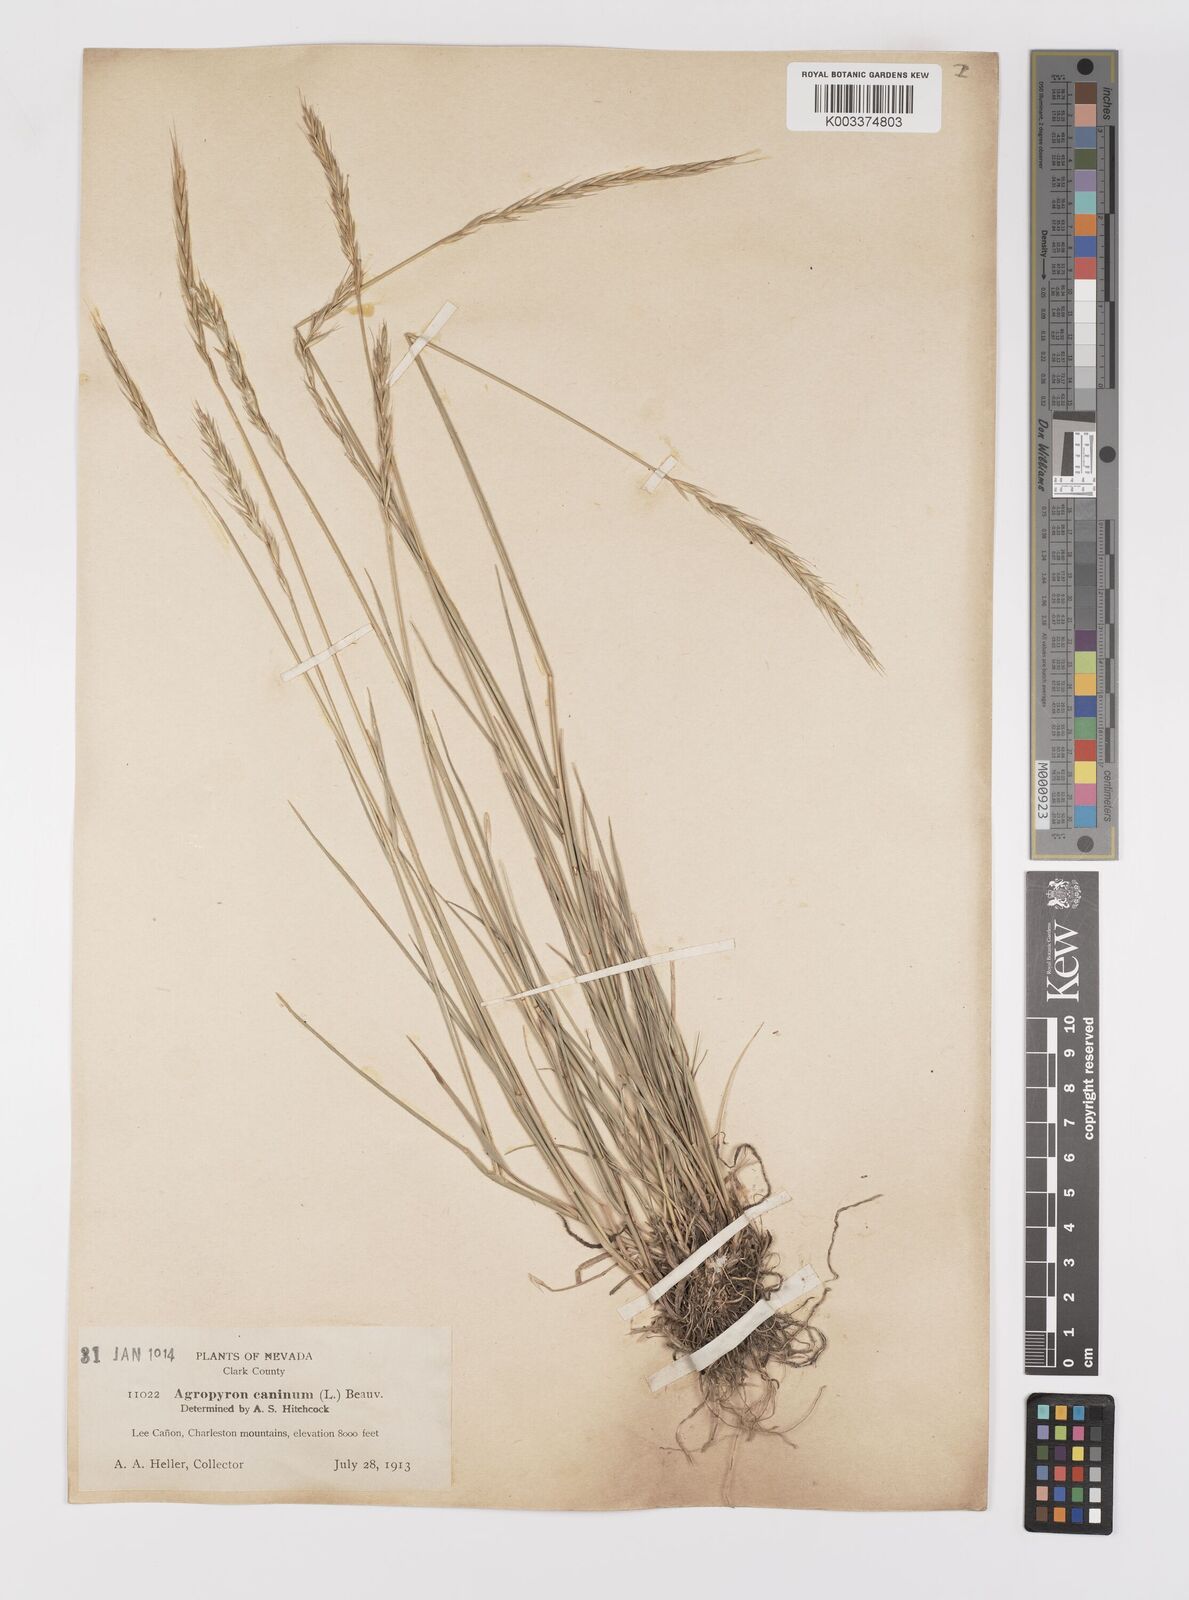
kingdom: Plantae
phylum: Tracheophyta
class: Liliopsida
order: Poales
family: Poaceae
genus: Elymus
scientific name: Elymus violaceus
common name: Arctic wheatgrass
